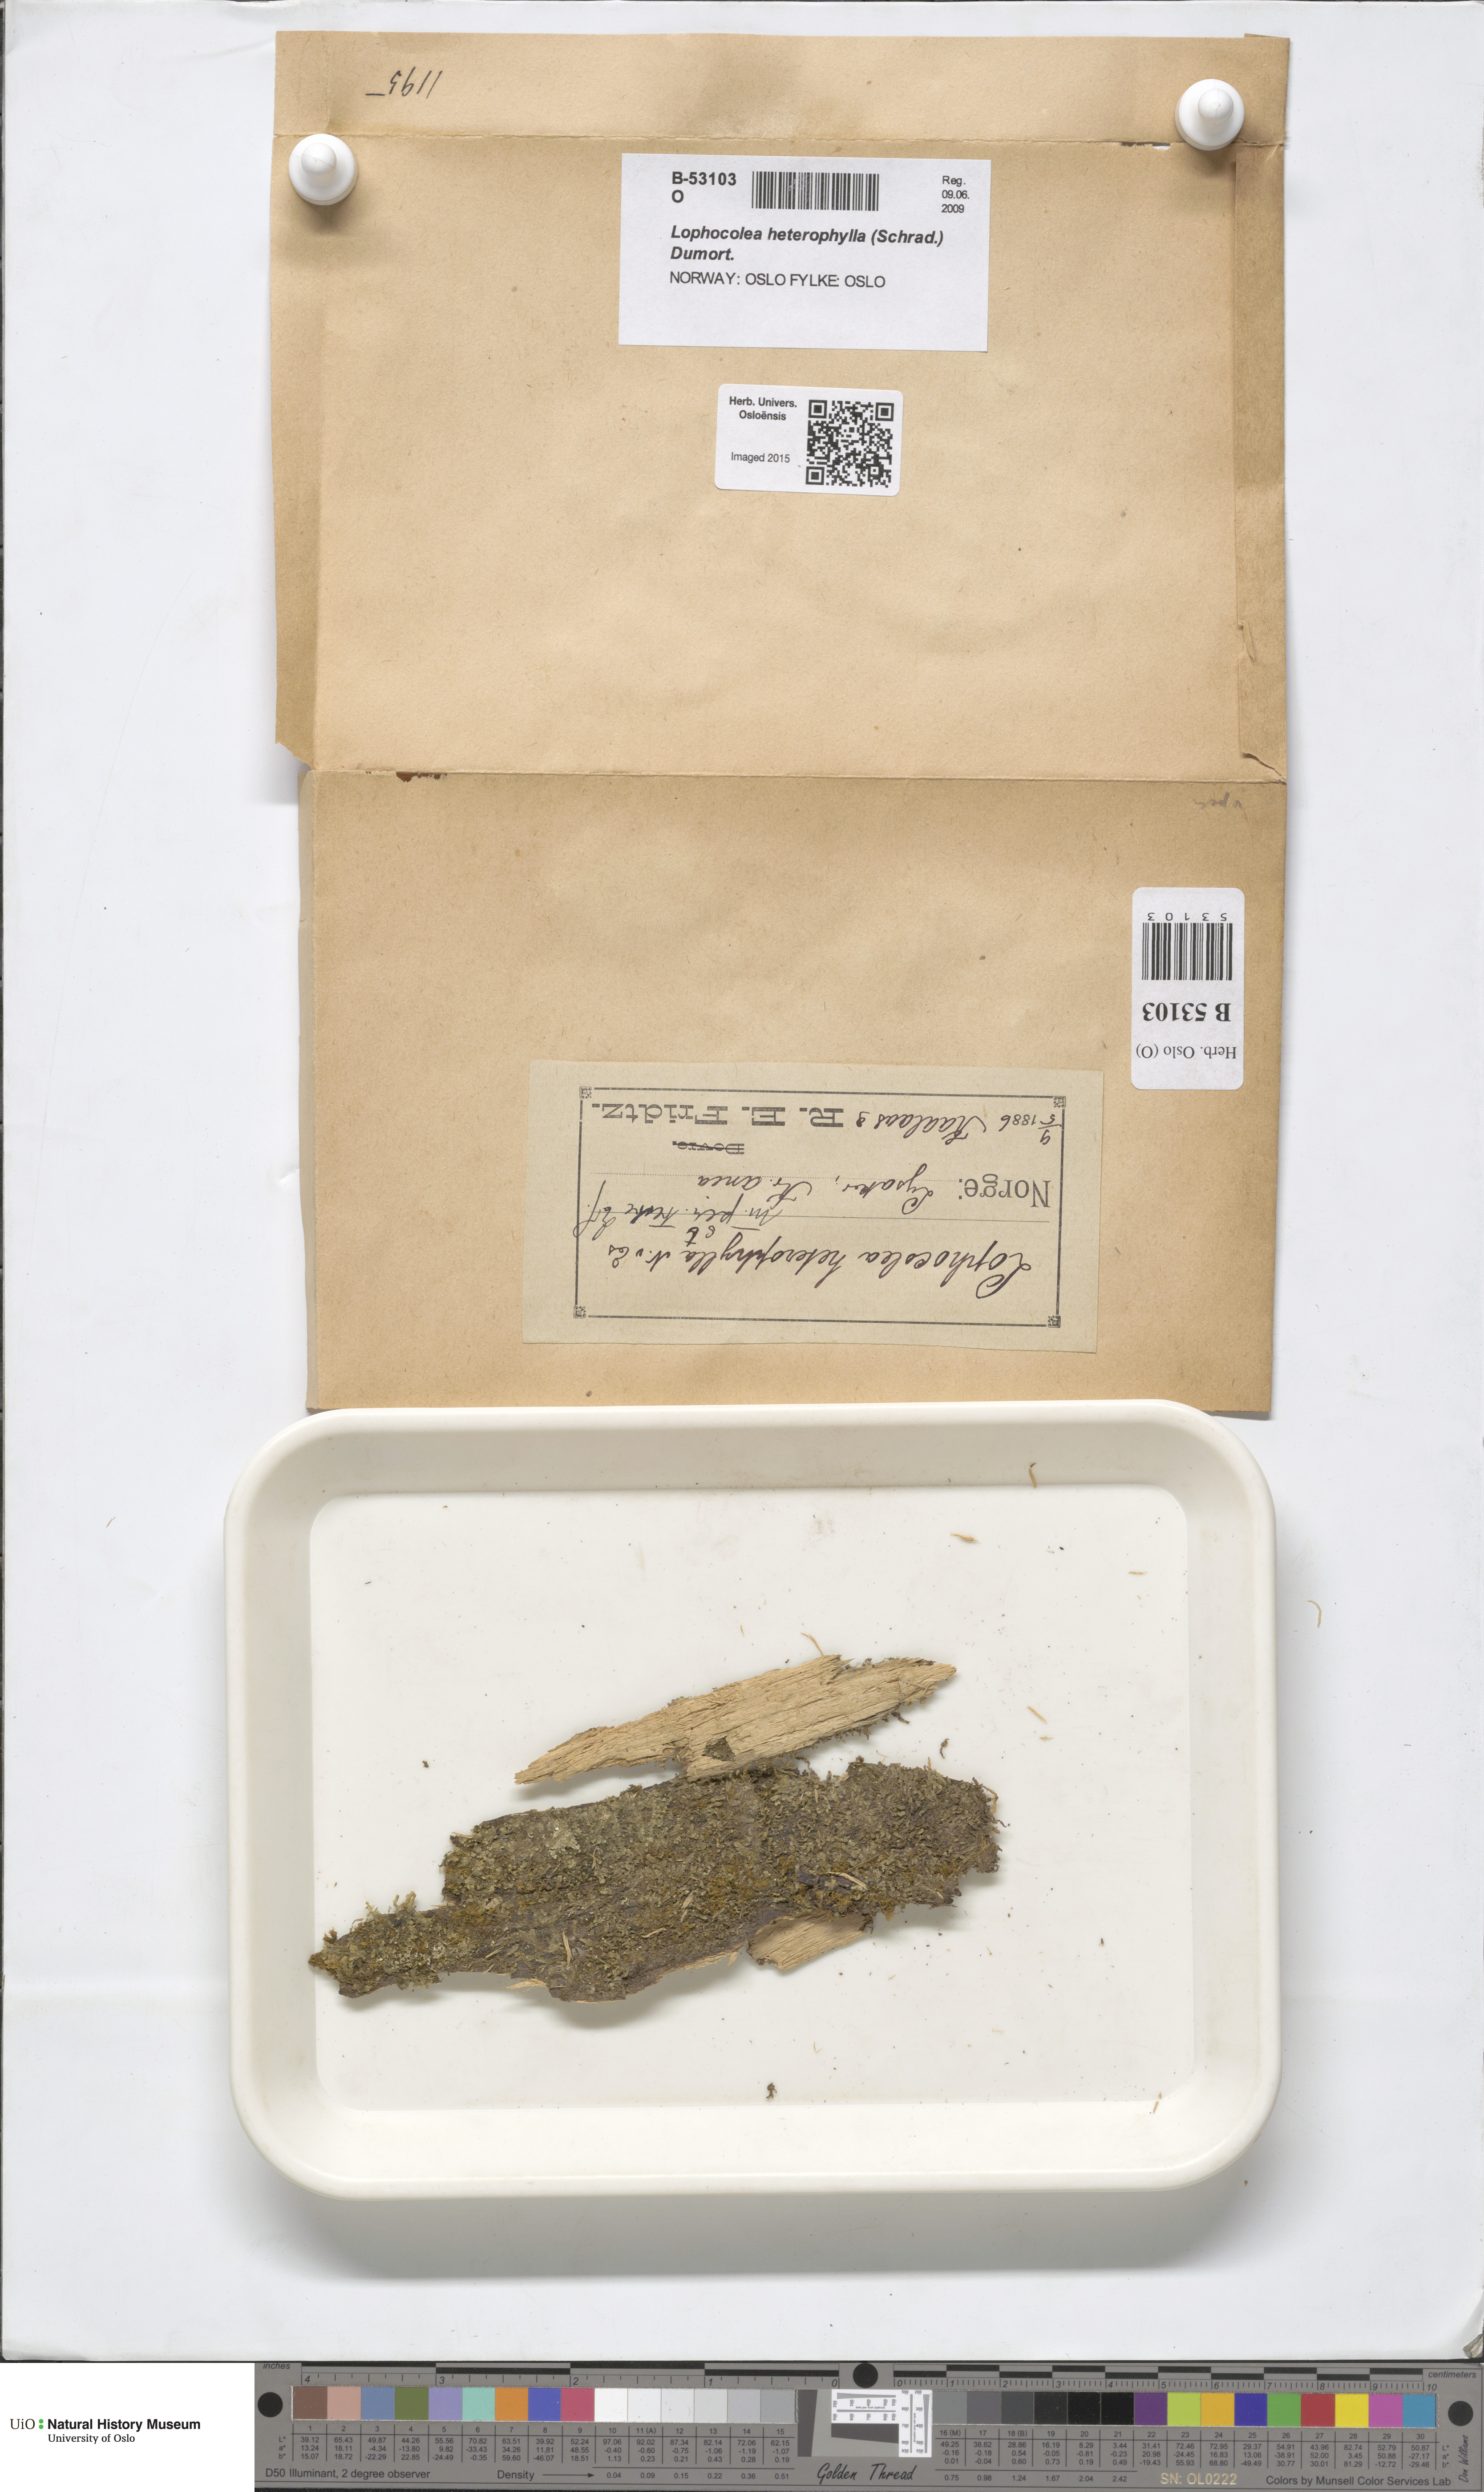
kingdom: Plantae
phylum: Marchantiophyta
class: Jungermanniopsida
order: Jungermanniales
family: Lophocoleaceae
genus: Lophocolea
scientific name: Lophocolea heterophylla
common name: Variable-leaved crestwort
